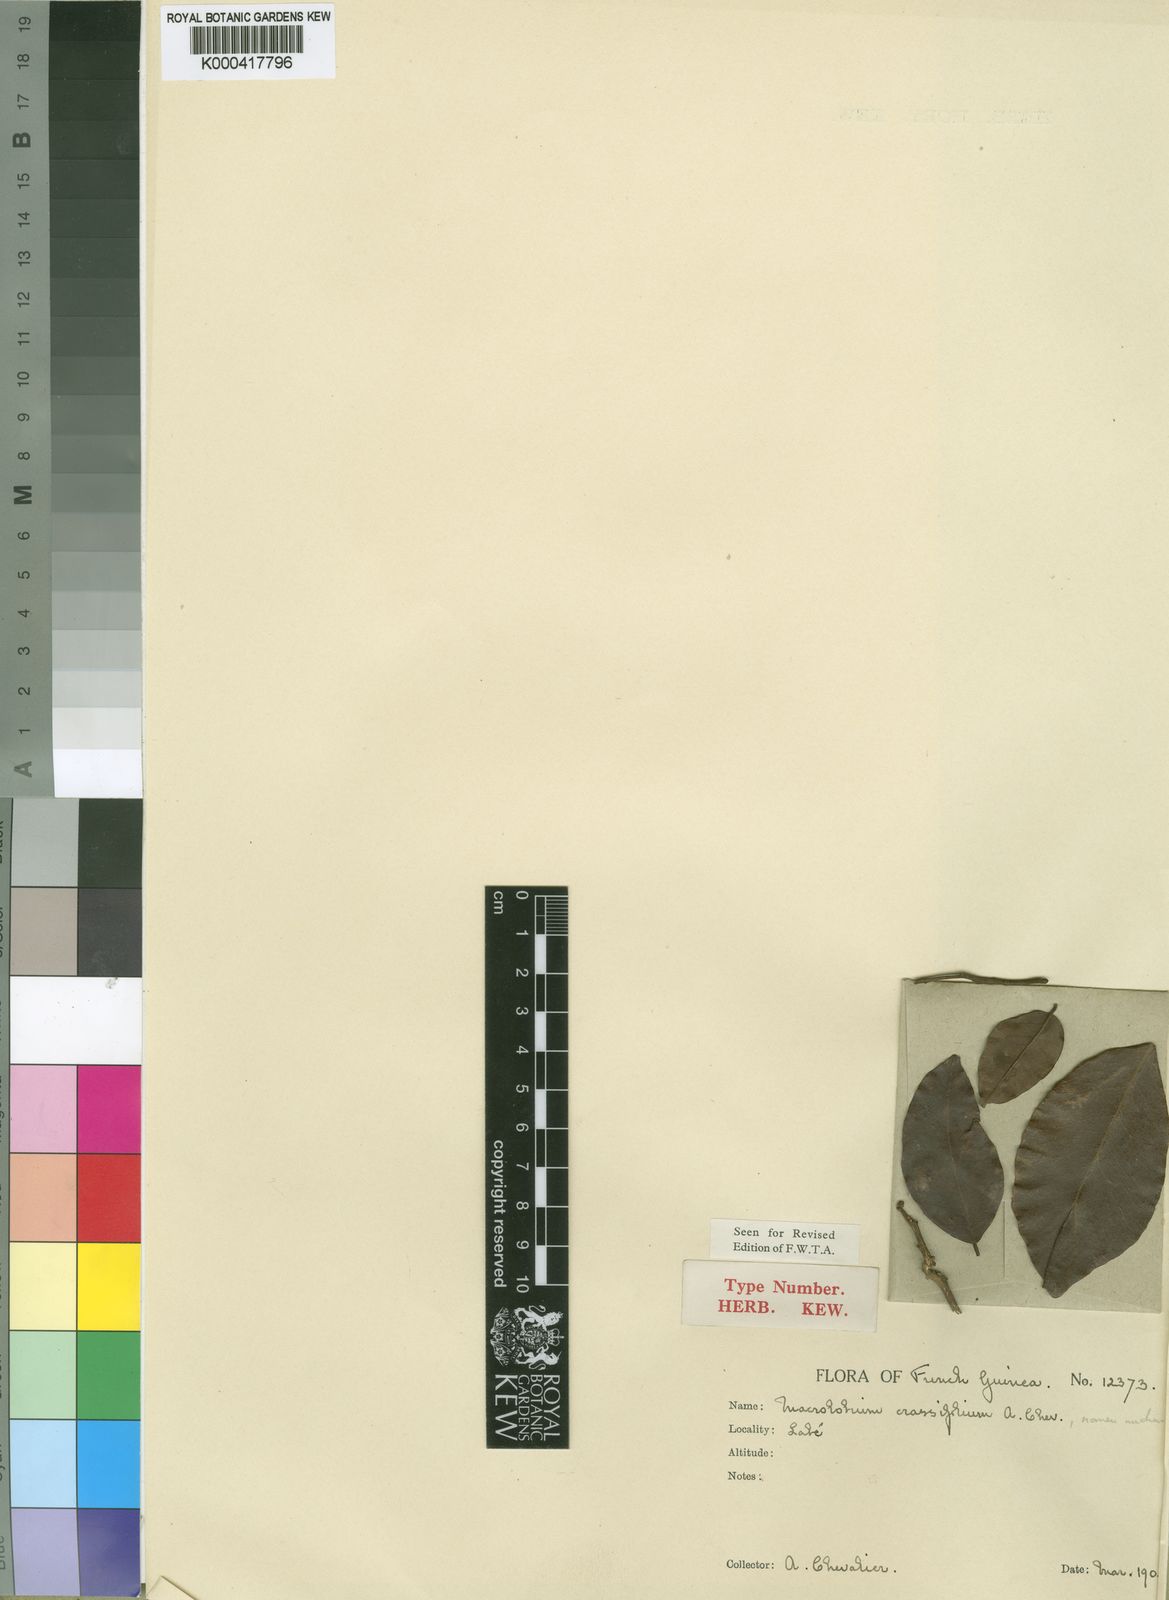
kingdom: Plantae
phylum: Tracheophyta
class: Magnoliopsida
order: Fabales
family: Fabaceae
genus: Dalbergia
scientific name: Dalbergia
